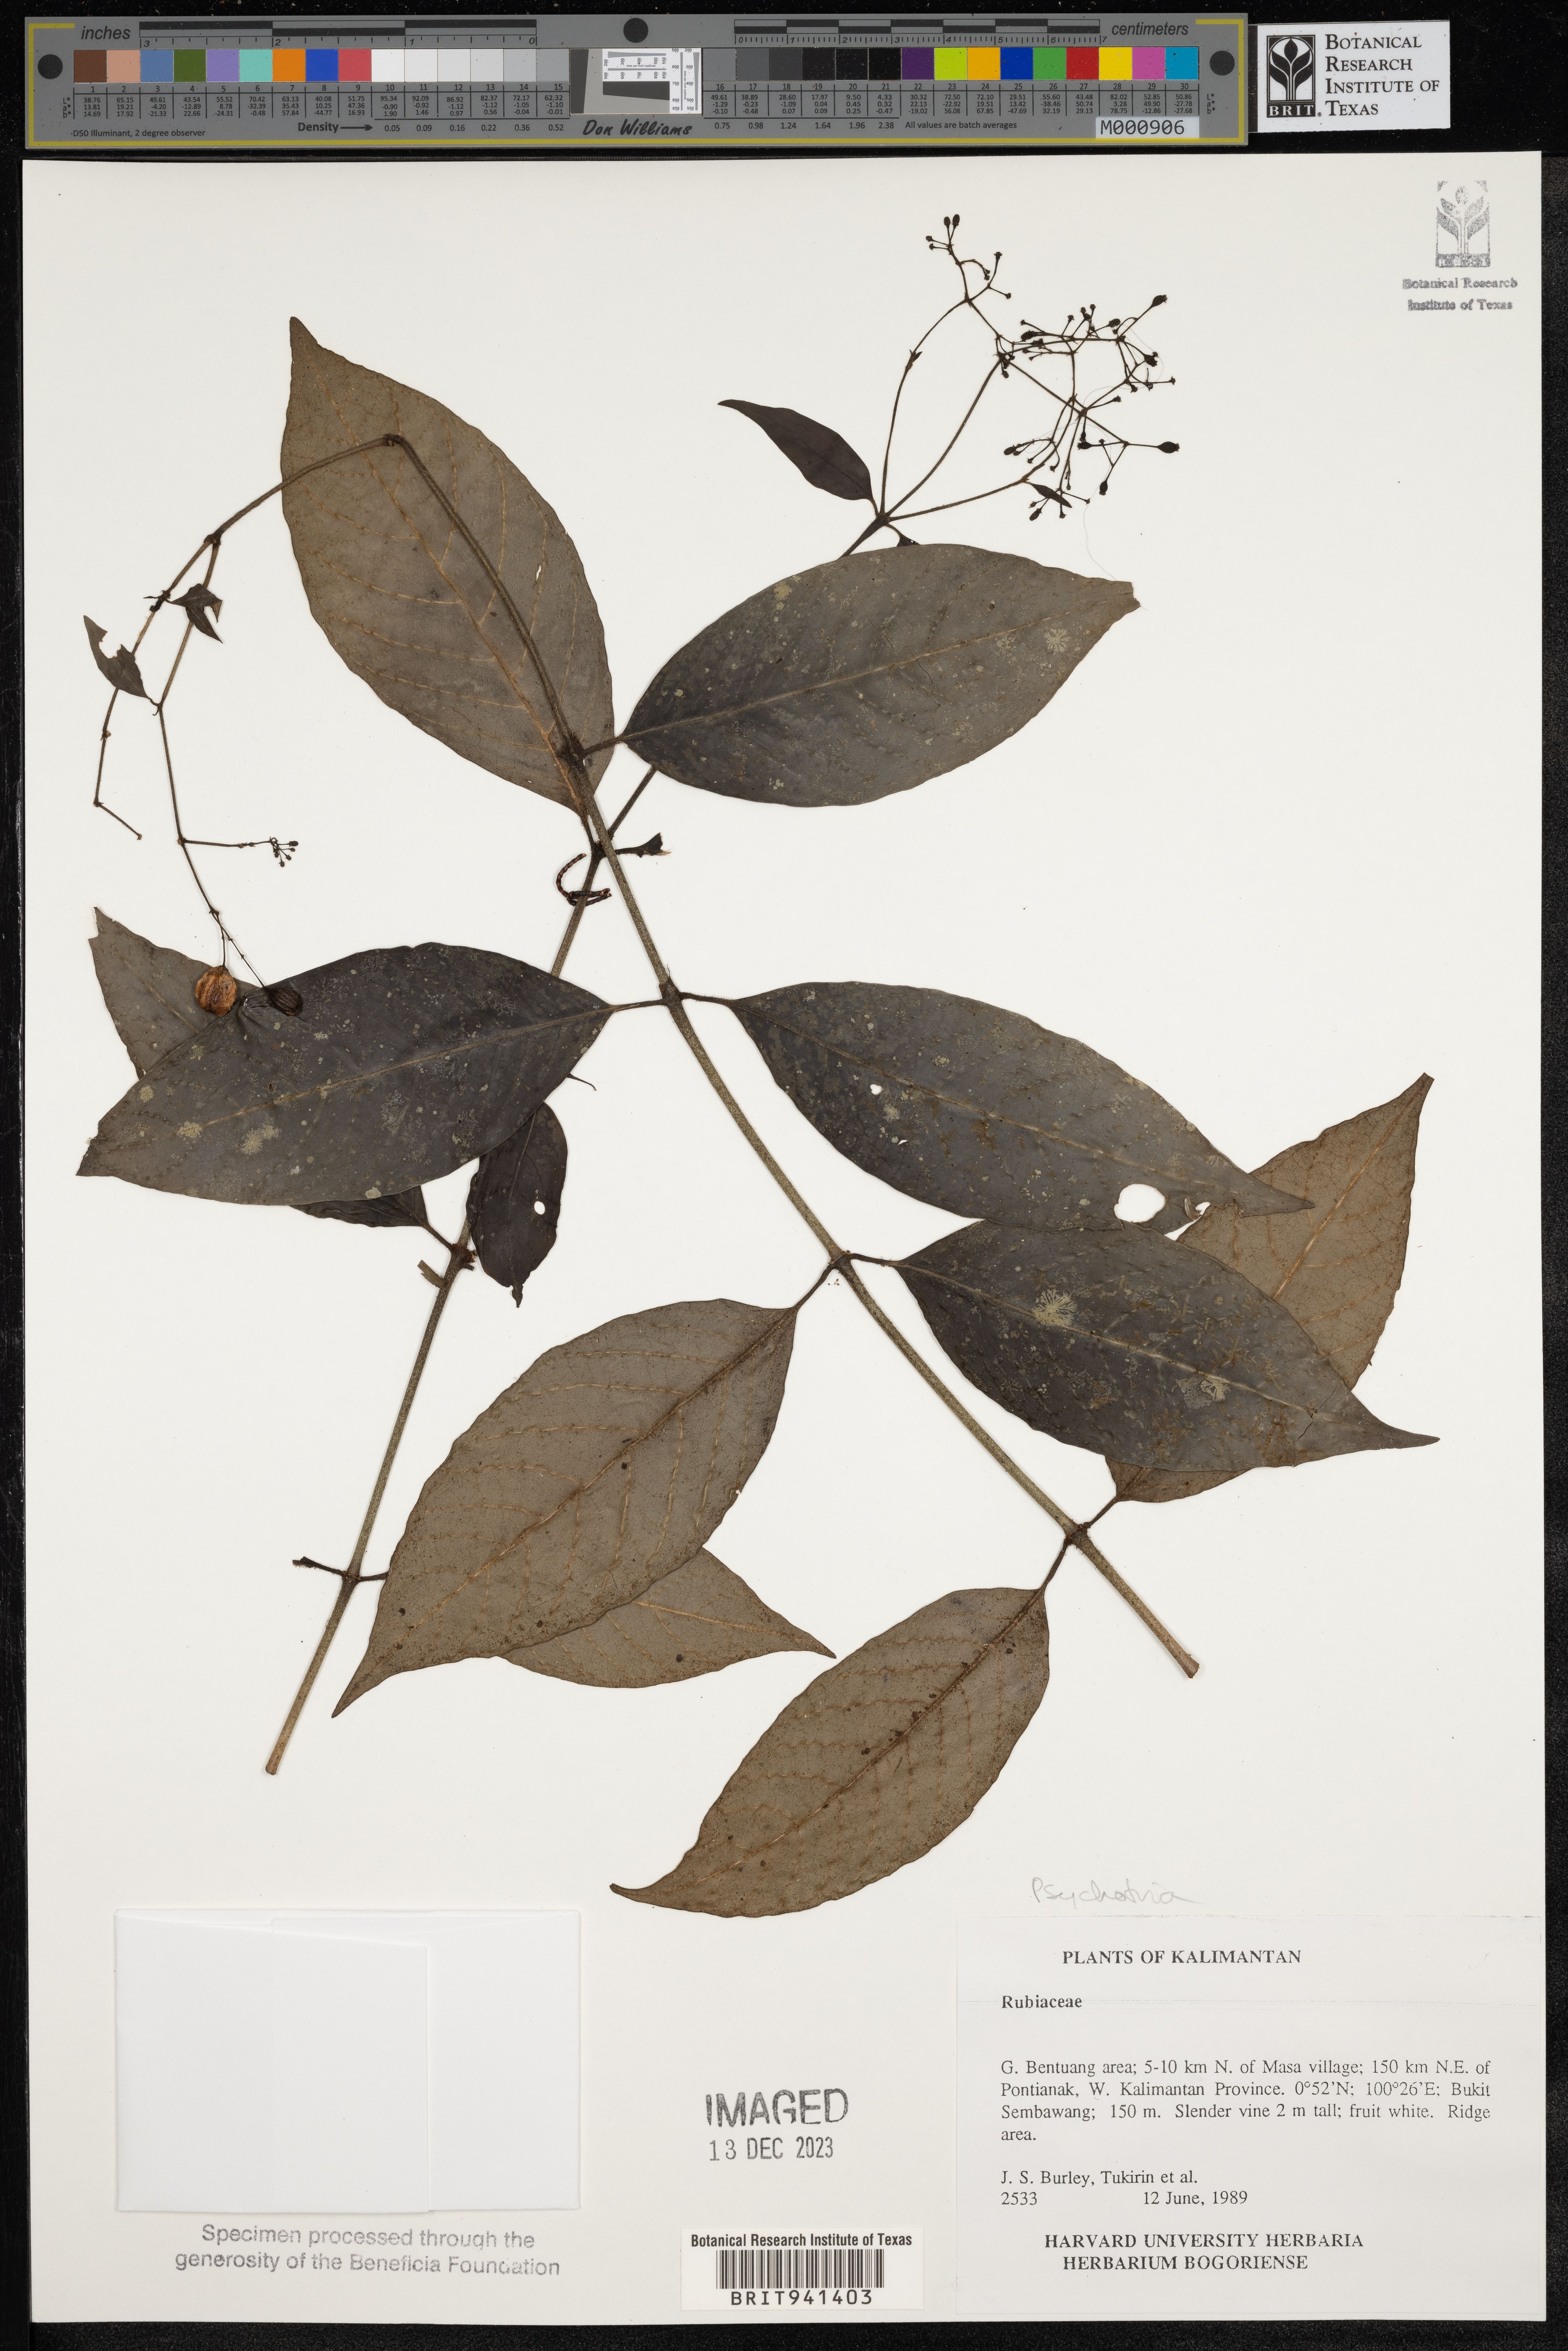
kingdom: Plantae
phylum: Tracheophyta
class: Magnoliopsida
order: Gentianales
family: Rubiaceae
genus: Psychotria
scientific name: Psychotria
